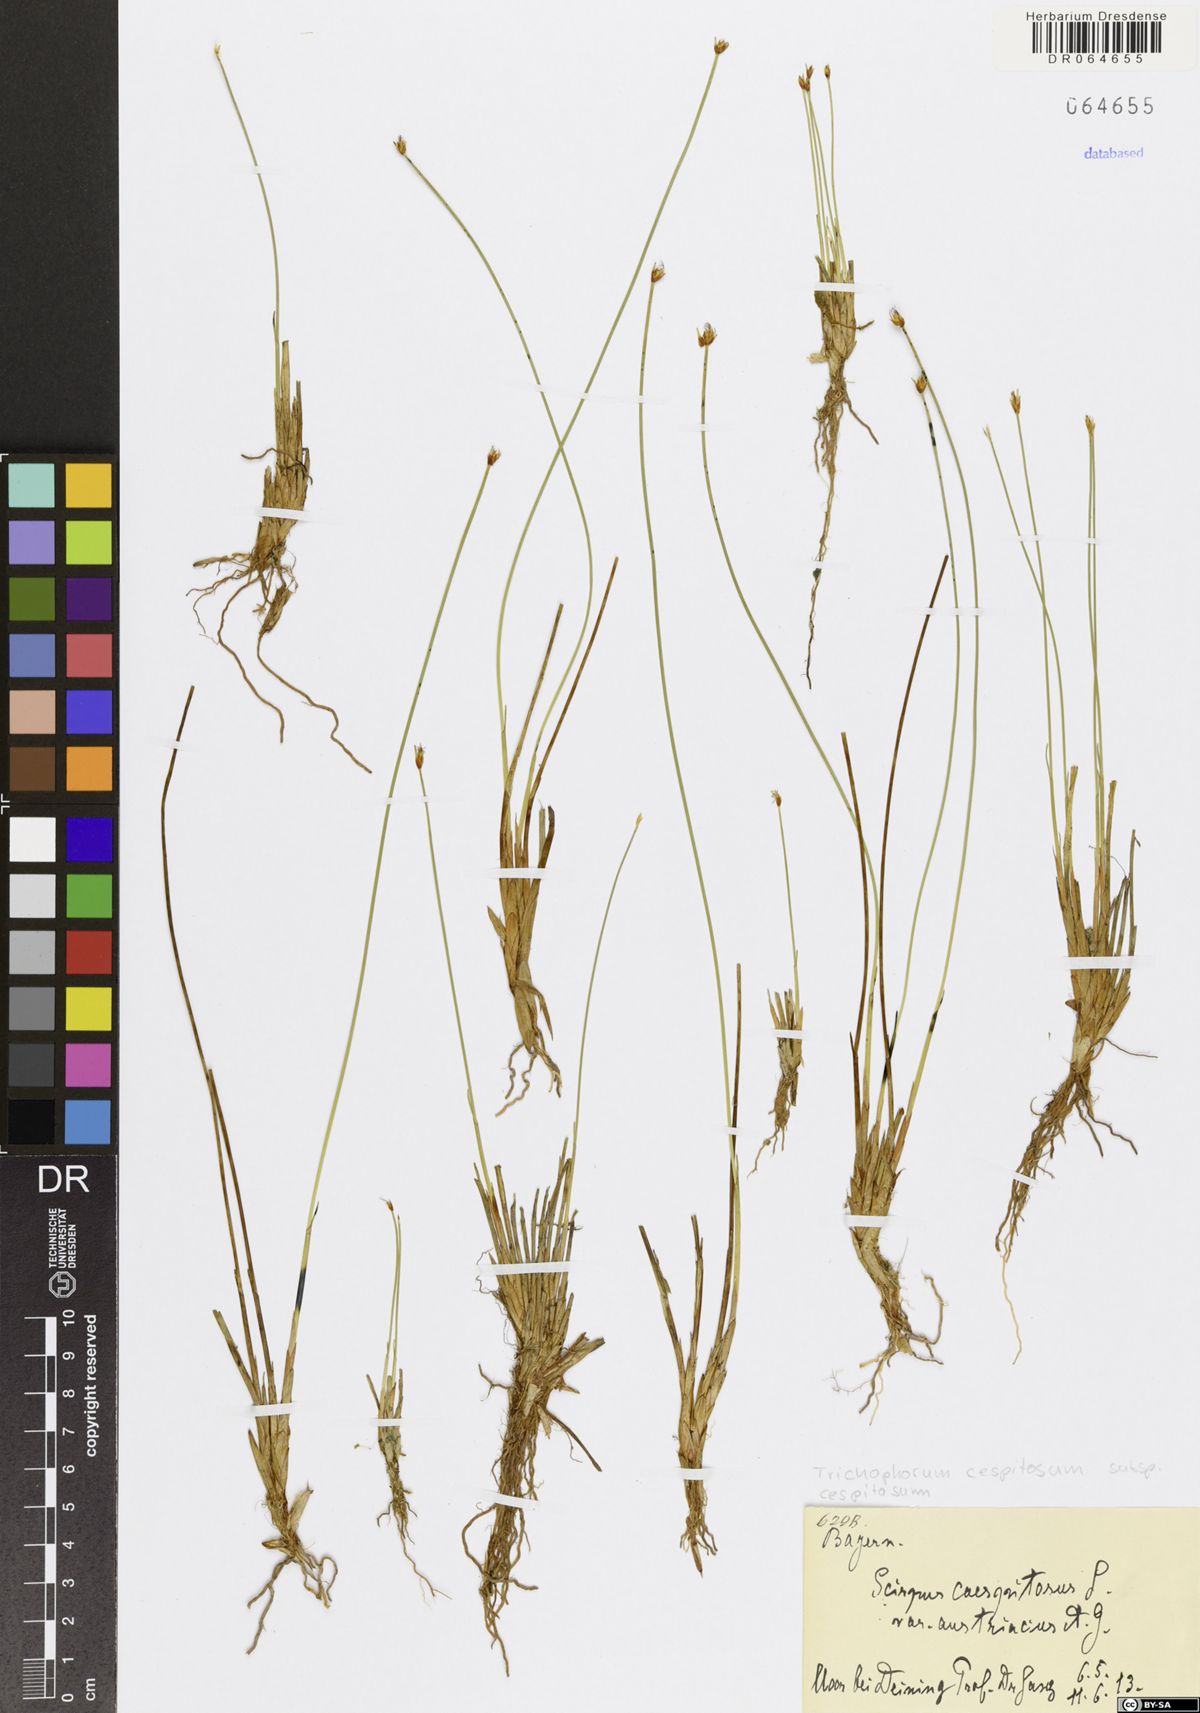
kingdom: Plantae
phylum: Tracheophyta
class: Liliopsida
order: Poales
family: Cyperaceae
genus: Trichophorum
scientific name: Trichophorum cespitosum
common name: Cespitose bulrush
